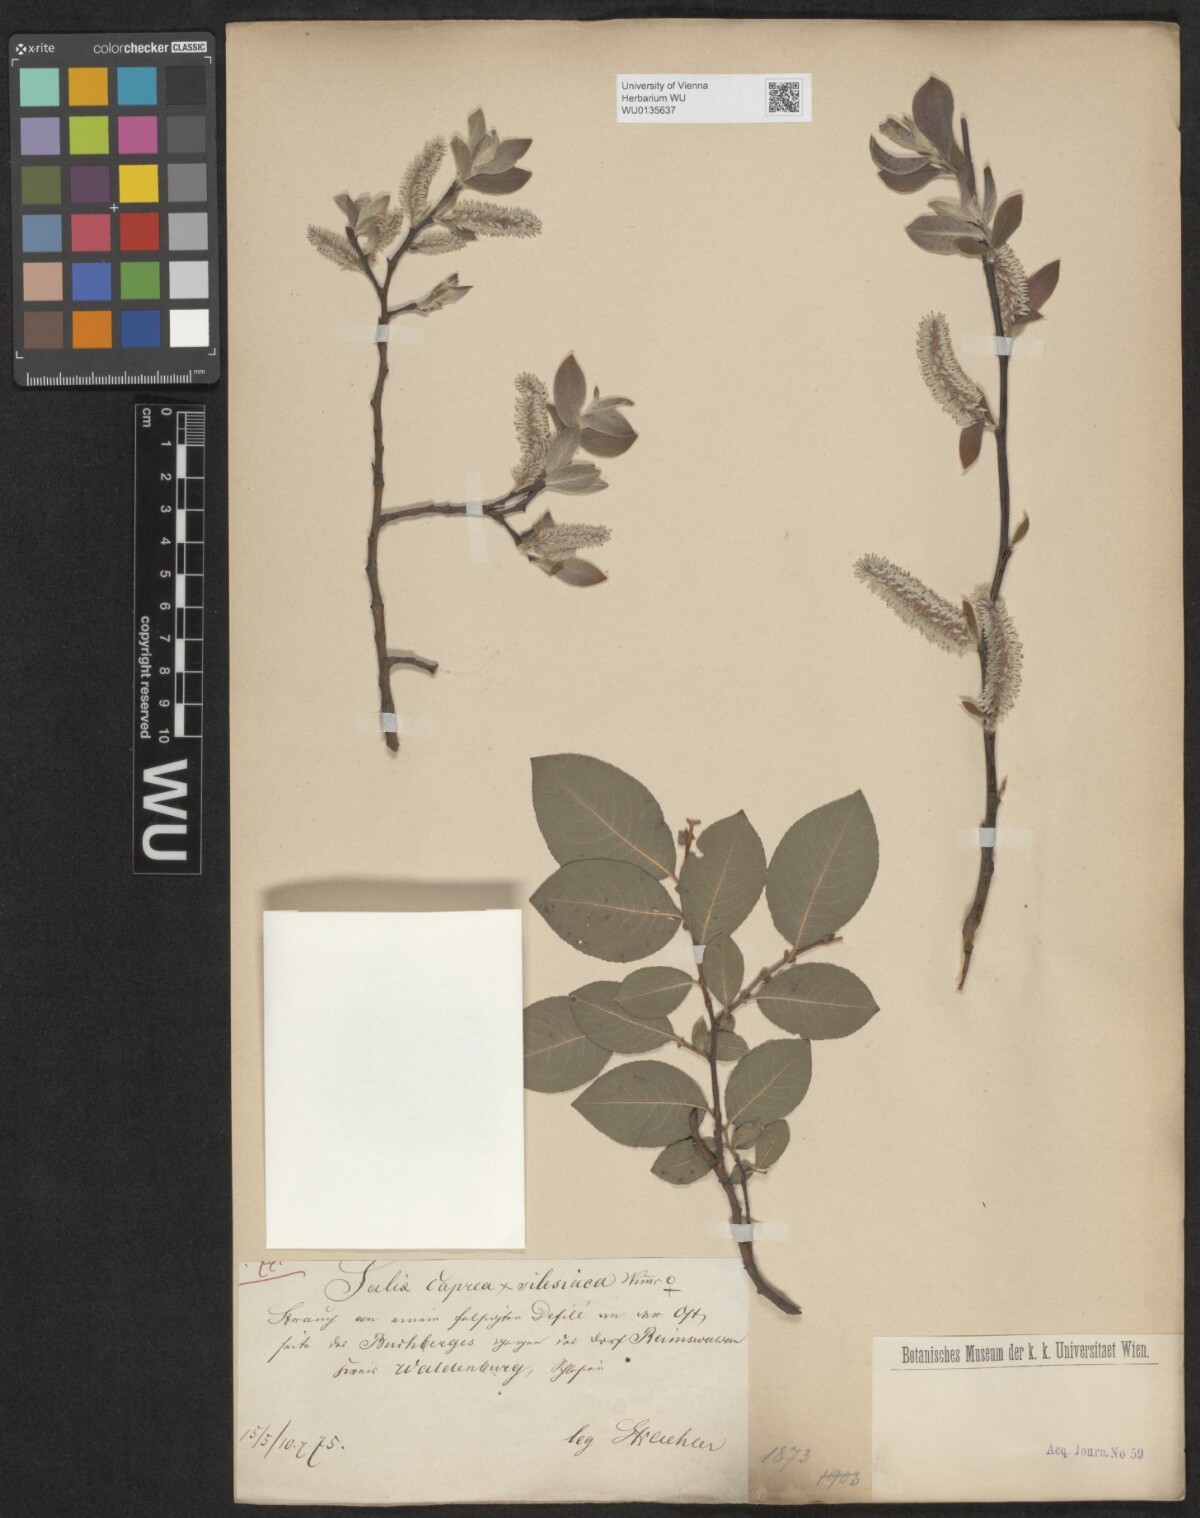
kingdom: Plantae
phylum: Tracheophyta
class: Magnoliopsida
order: Malpighiales
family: Salicaceae
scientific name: Salicaceae
